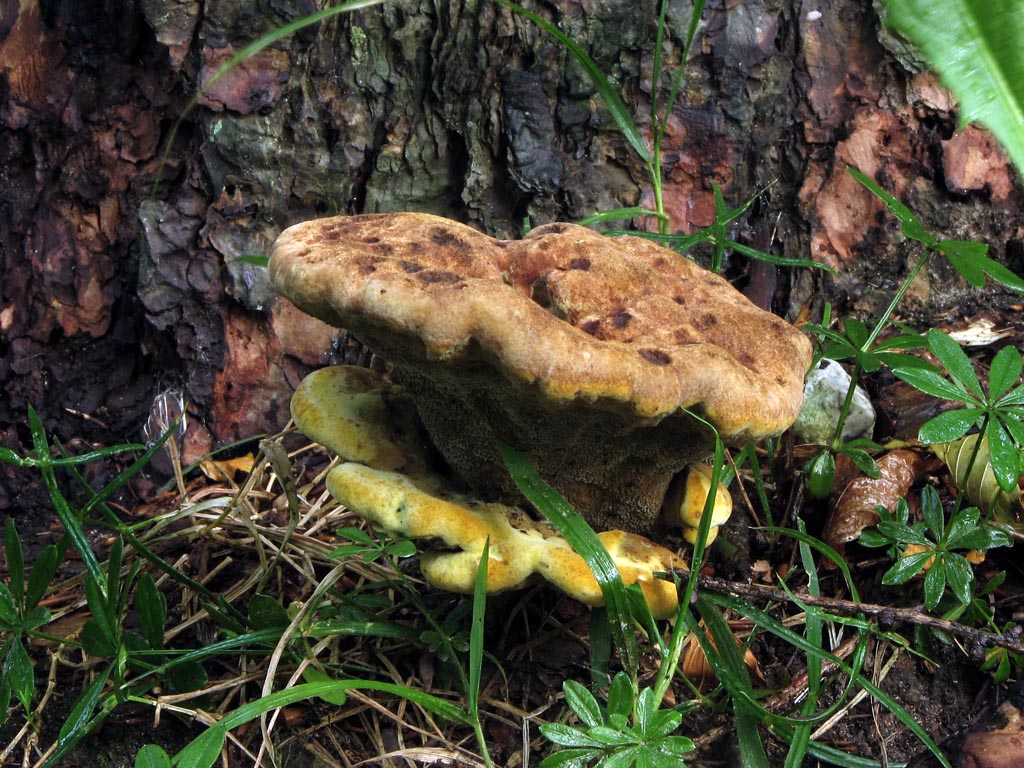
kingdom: Fungi
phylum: Basidiomycota
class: Agaricomycetes
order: Polyporales
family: Laetiporaceae
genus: Phaeolus
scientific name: Phaeolus schweinitzii
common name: brunporesvamp
